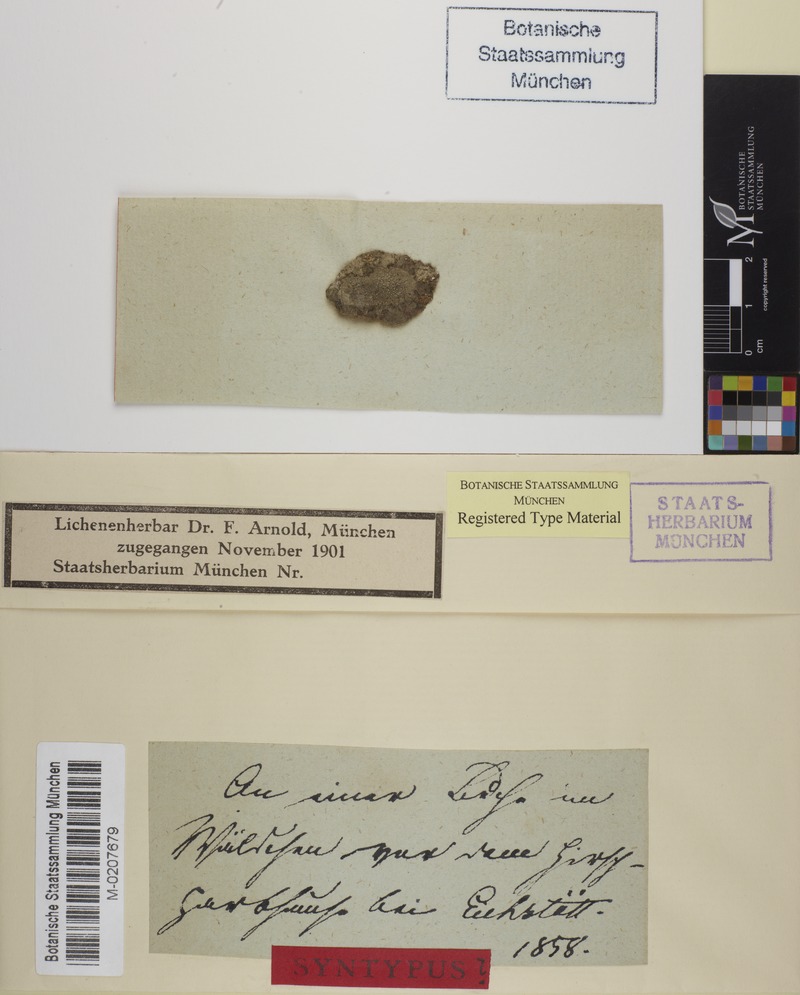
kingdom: Fungi
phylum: Ascomycota
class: Lecanoromycetes
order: Umbilicariales
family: Fuscideaceae
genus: Maronea
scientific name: Maronea constans
